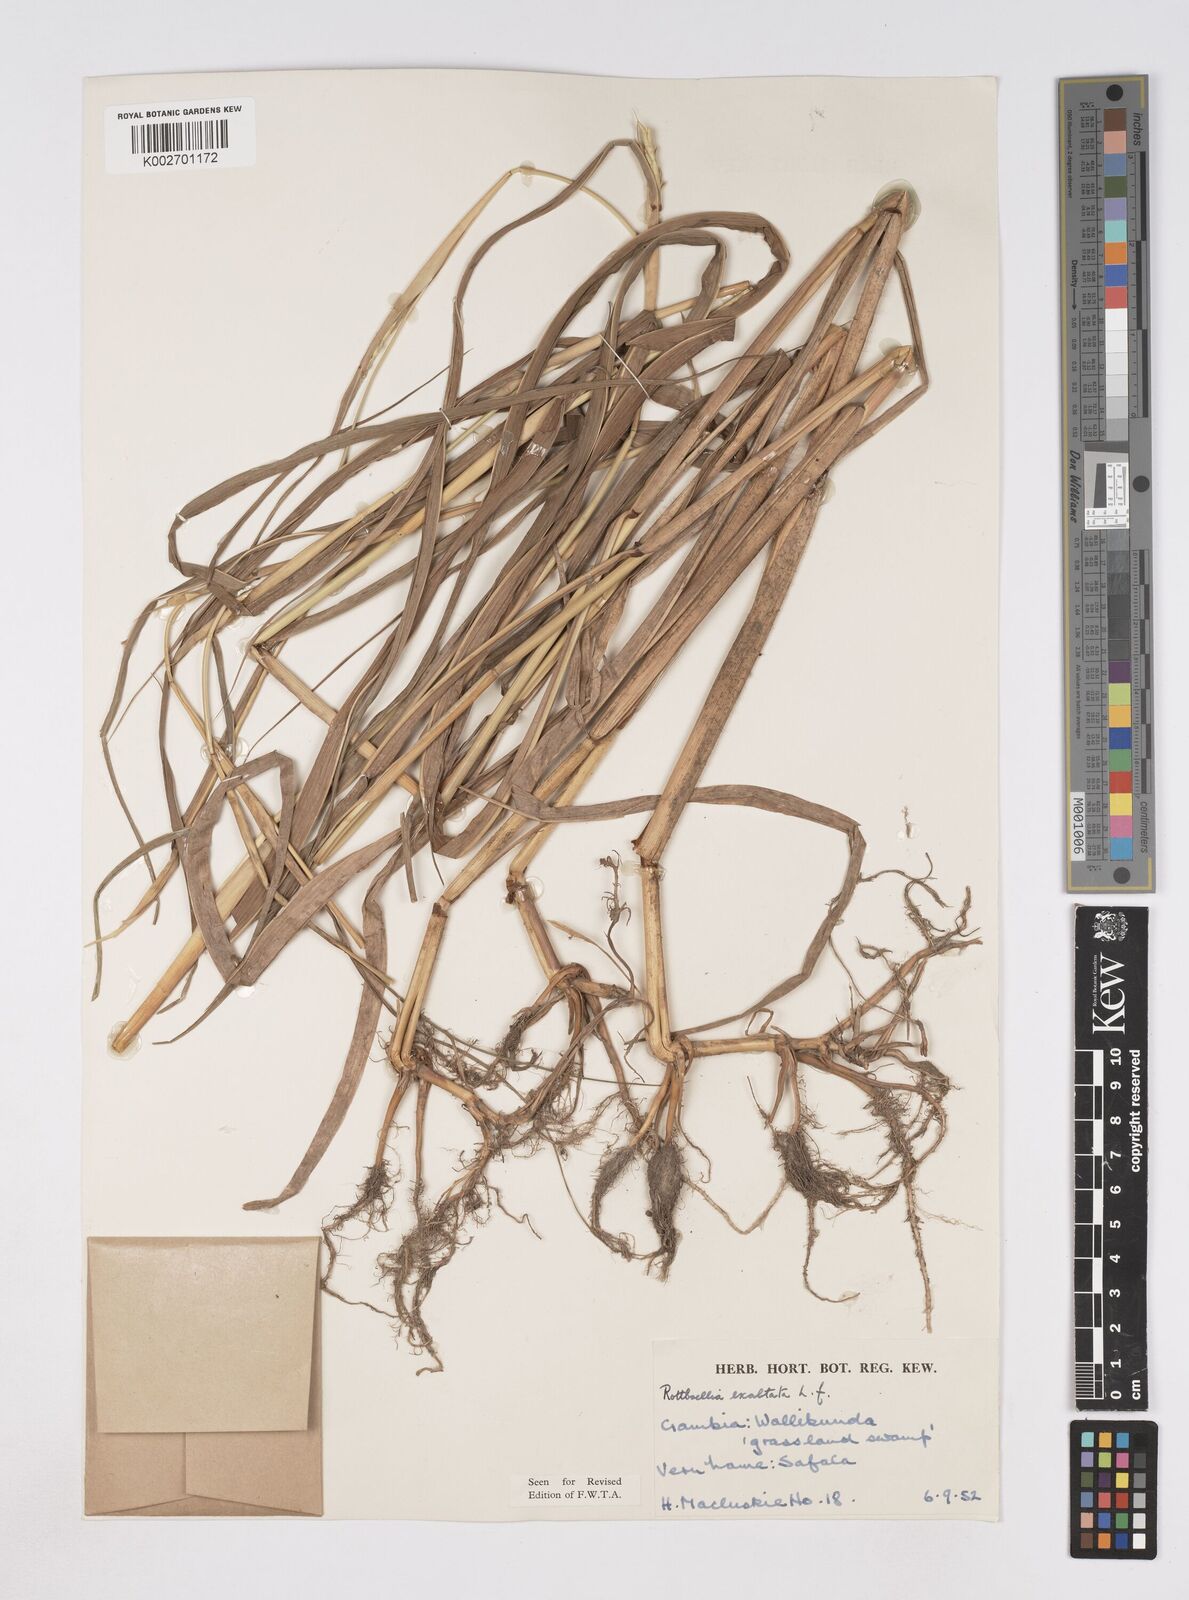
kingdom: Plantae
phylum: Tracheophyta
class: Liliopsida
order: Poales
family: Poaceae
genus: Ophiuros
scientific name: Ophiuros exaltatus
